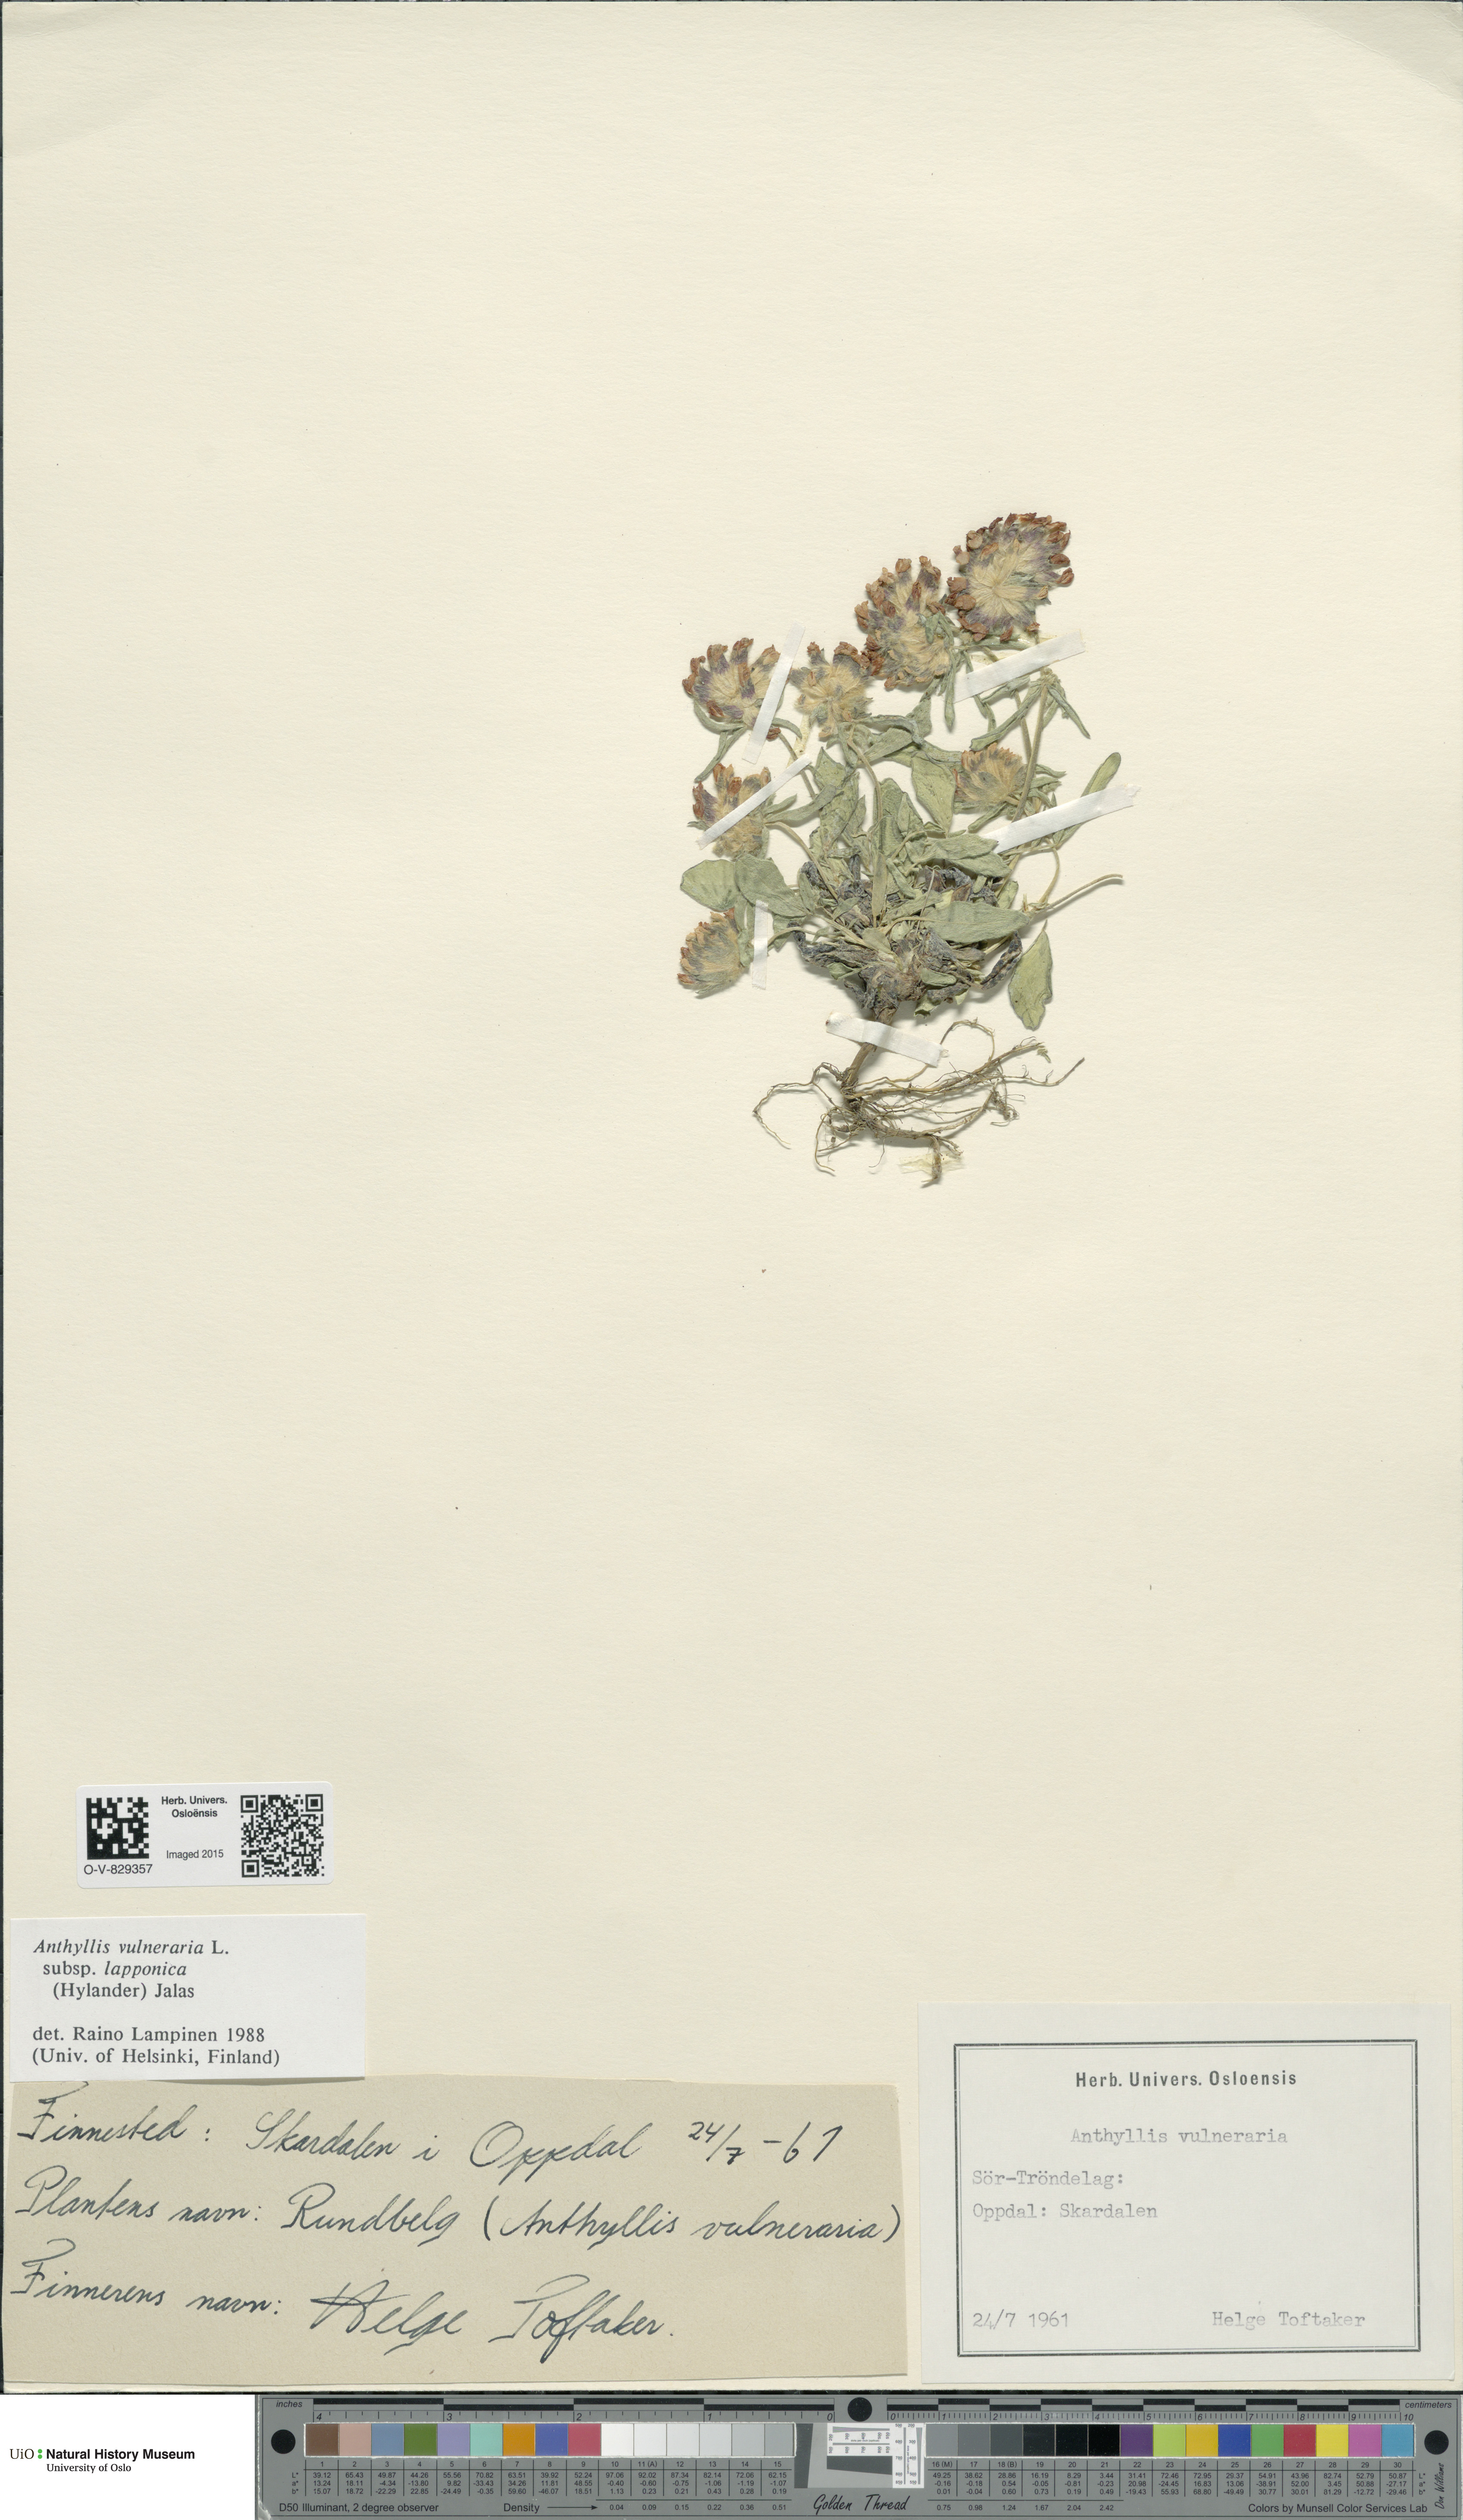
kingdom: Plantae
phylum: Tracheophyta
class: Magnoliopsida
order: Fabales
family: Fabaceae
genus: Anthyllis
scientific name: Anthyllis vulneraria
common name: Kidney vetch
